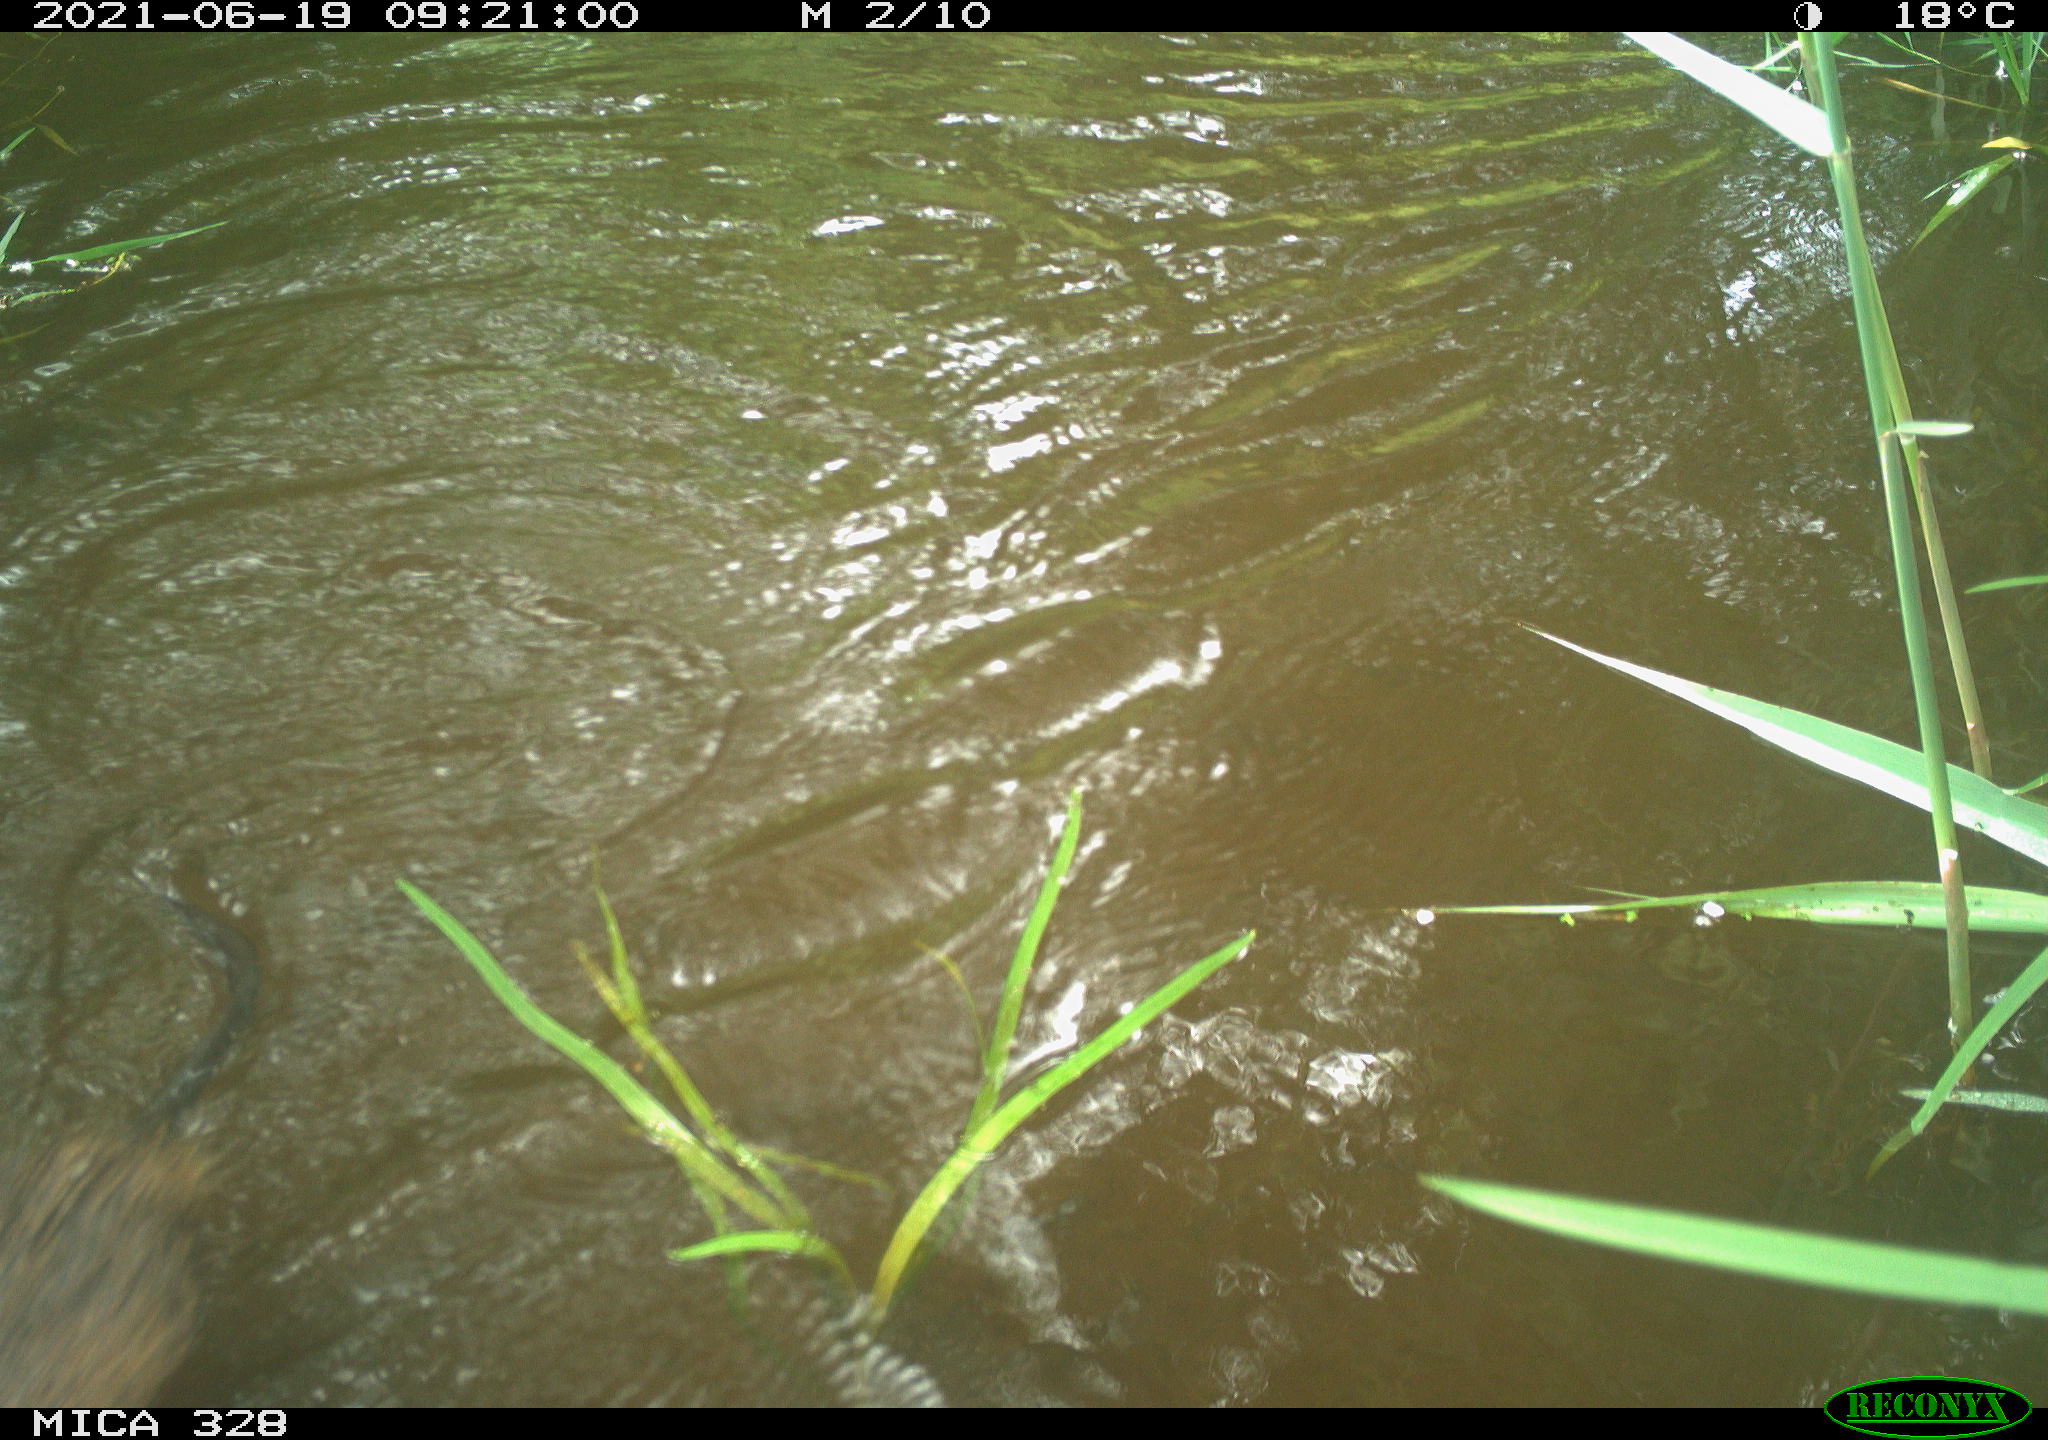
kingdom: Animalia
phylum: Chordata
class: Mammalia
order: Rodentia
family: Cricetidae
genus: Ondatra
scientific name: Ondatra zibethicus
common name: Muskrat
